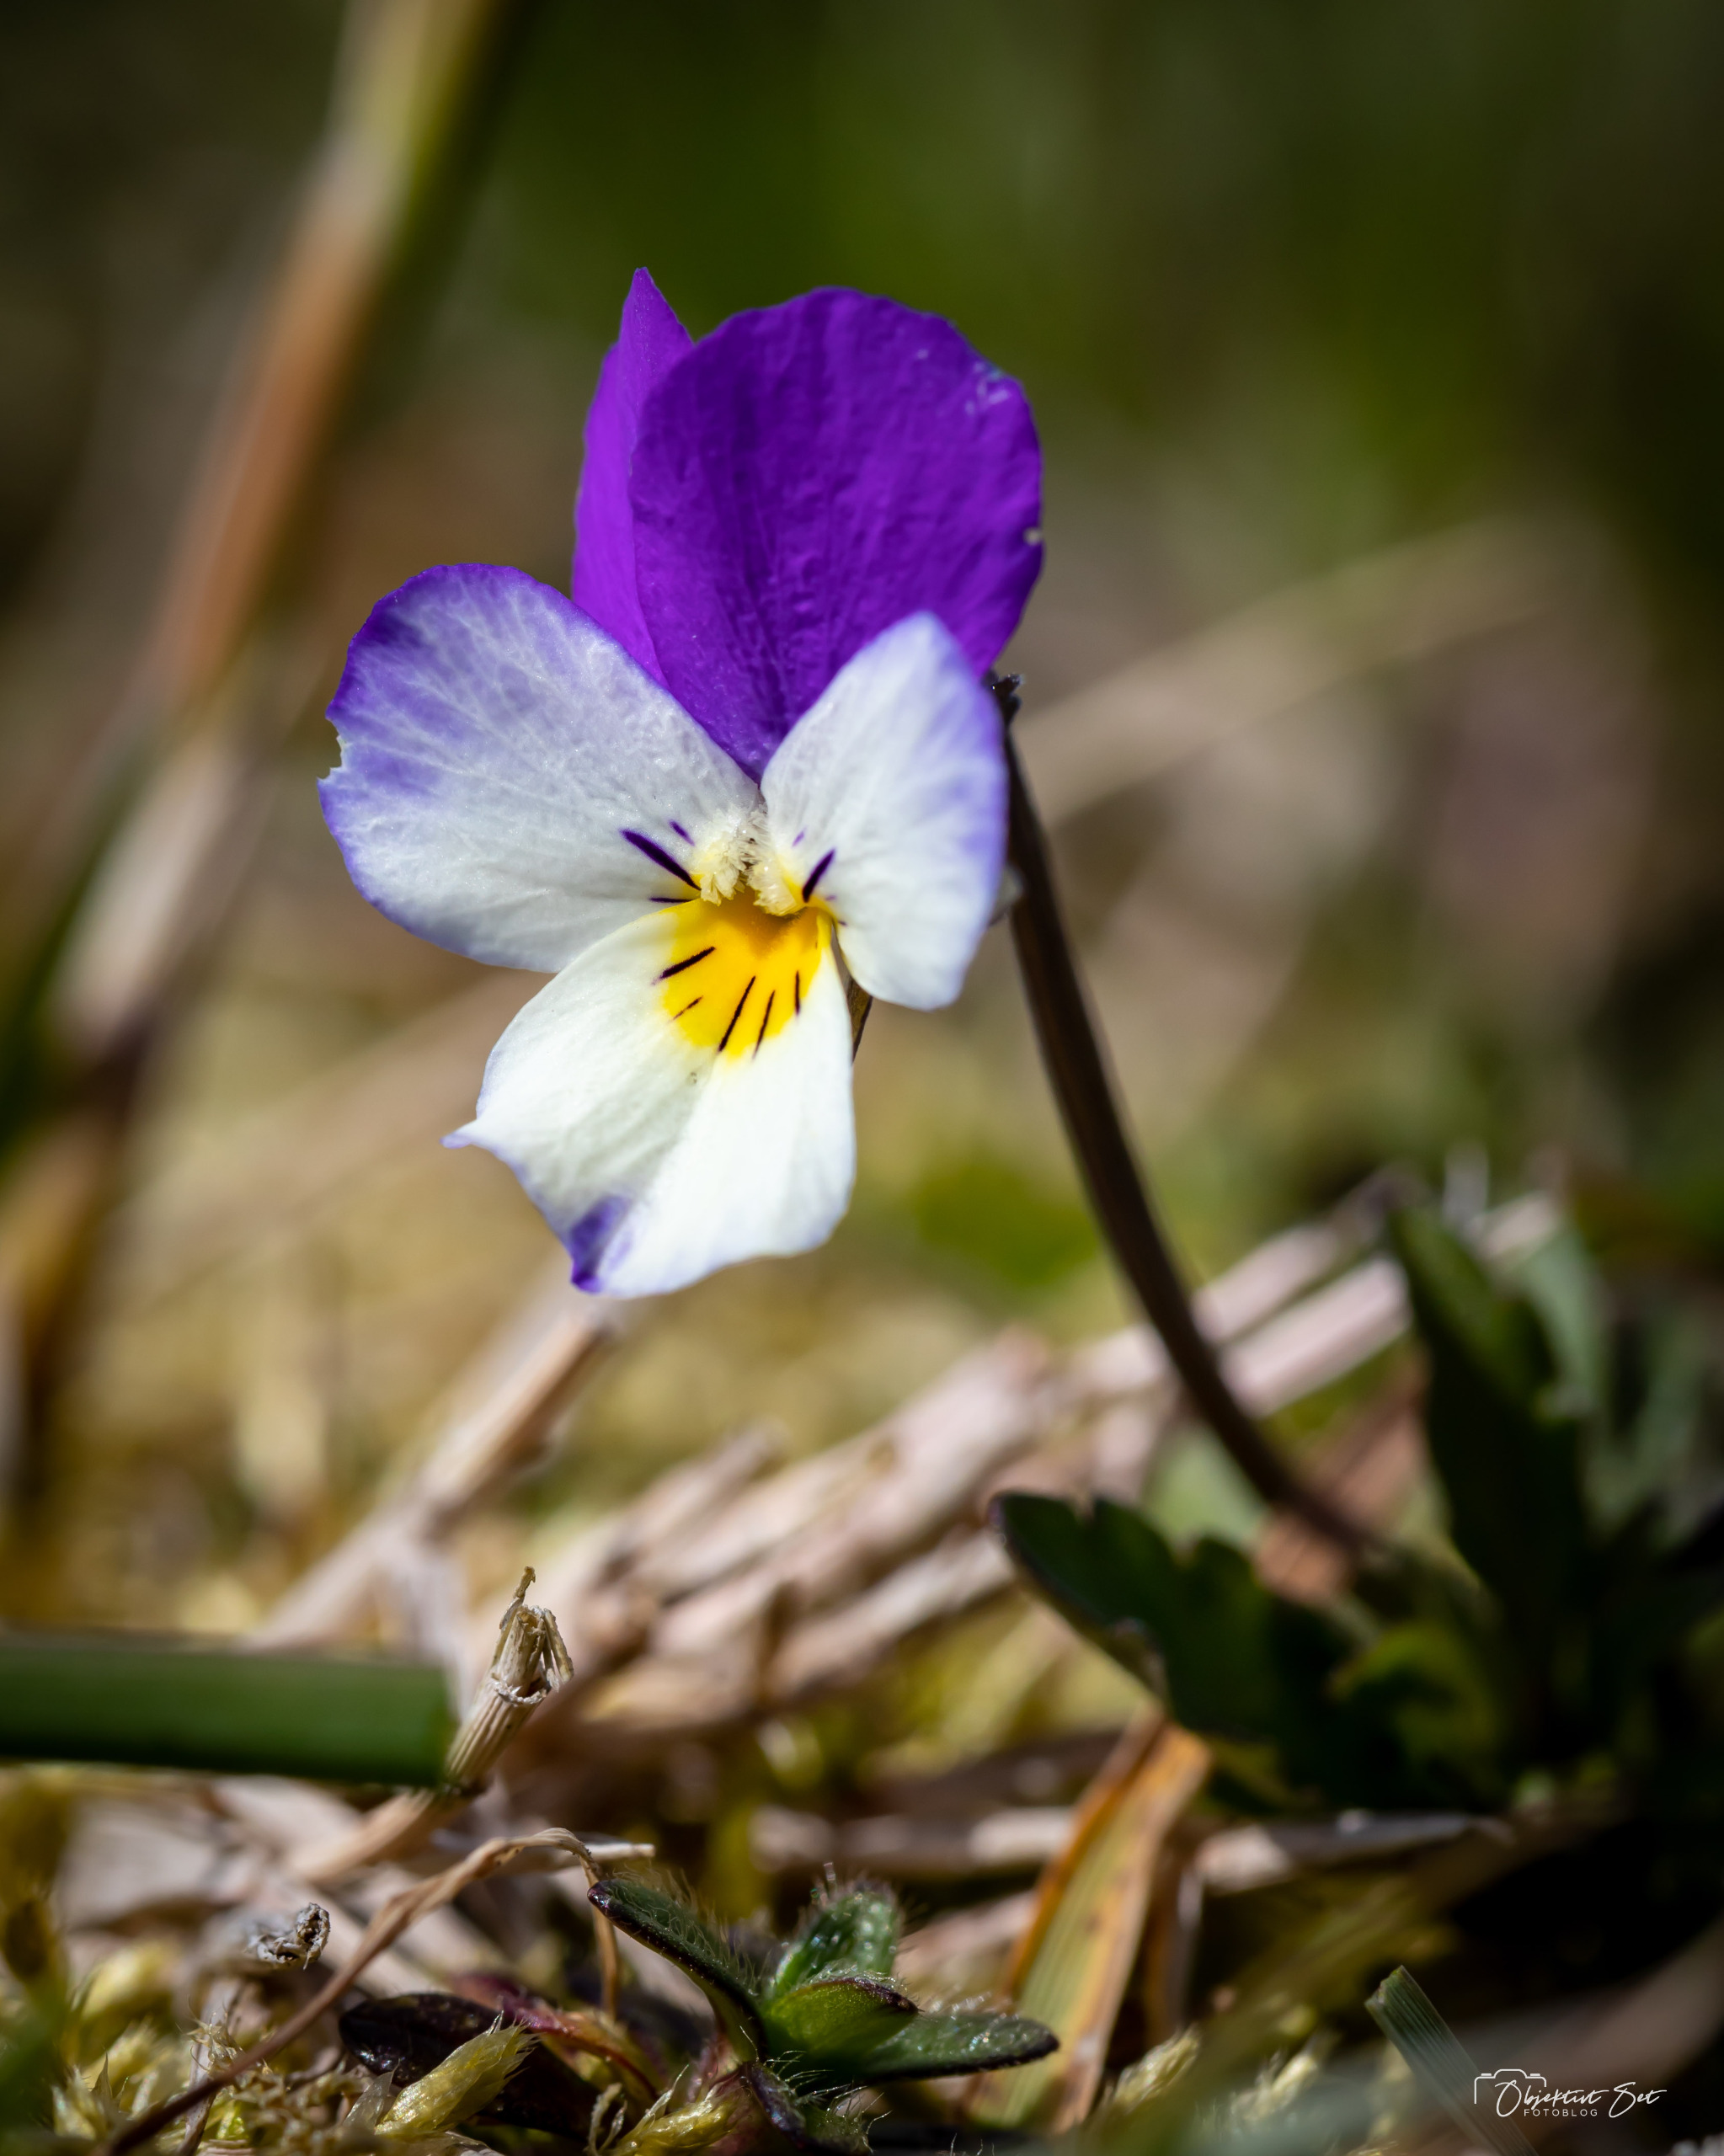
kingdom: Plantae
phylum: Tracheophyta
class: Magnoliopsida
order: Malpighiales
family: Violaceae
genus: Viola
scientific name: Viola tricolor
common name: Stedmoderblomst
